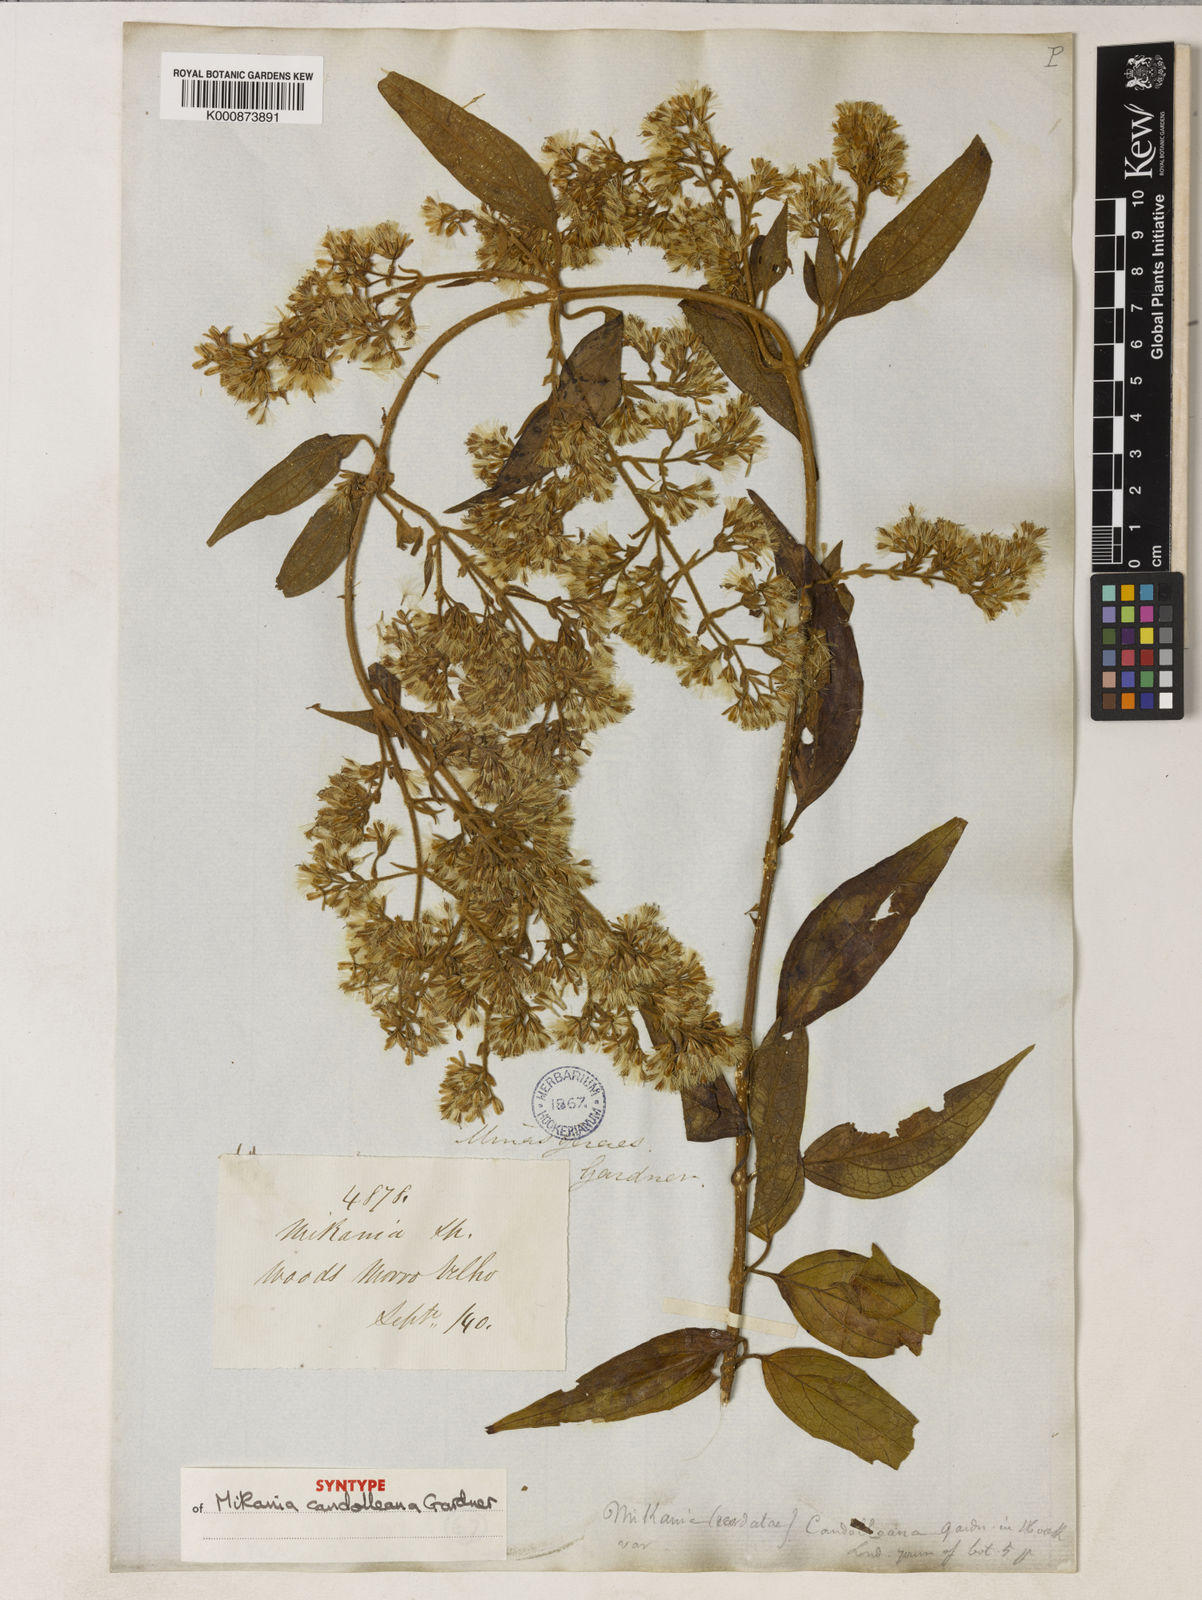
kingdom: Plantae
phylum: Tracheophyta
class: Magnoliopsida
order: Asterales
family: Asteraceae
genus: Mikania
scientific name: Mikania candolleana
